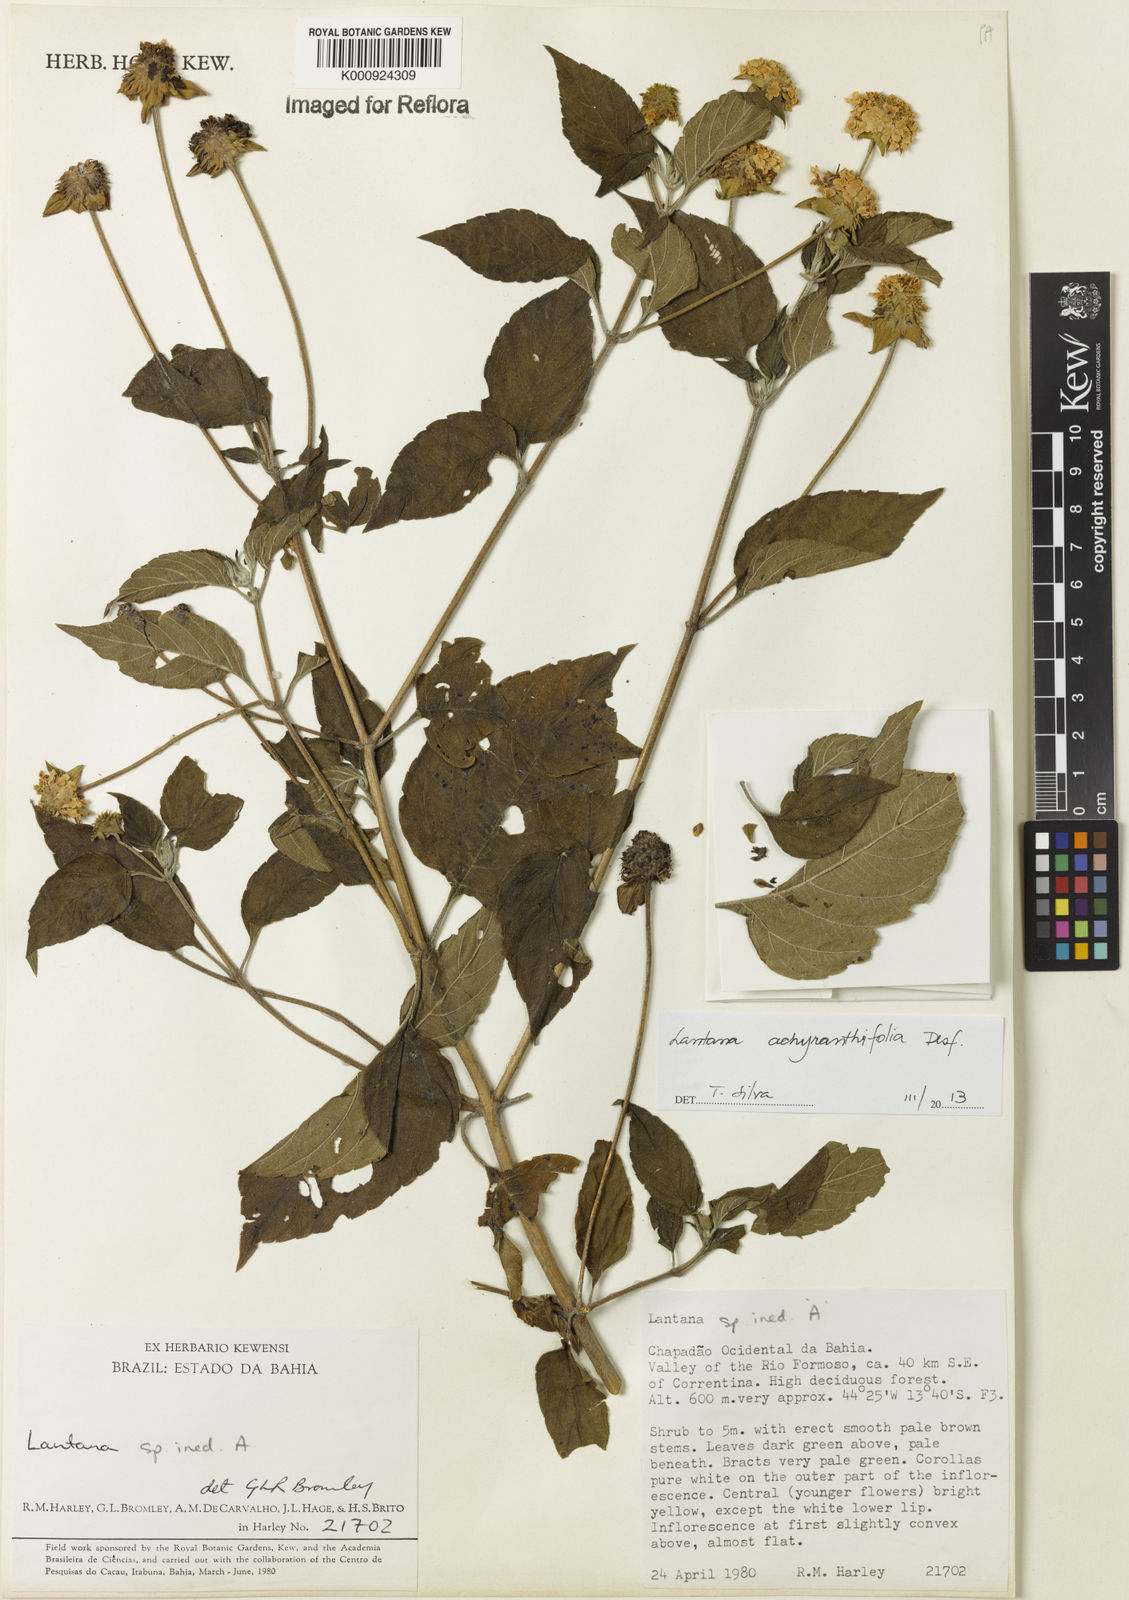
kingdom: Plantae
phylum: Tracheophyta
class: Magnoliopsida
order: Lamiales
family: Verbenaceae
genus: Lantana
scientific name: Lantana achyranthifolia
